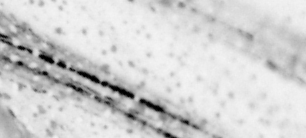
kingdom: Animalia
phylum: Chordata
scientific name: Chordata
